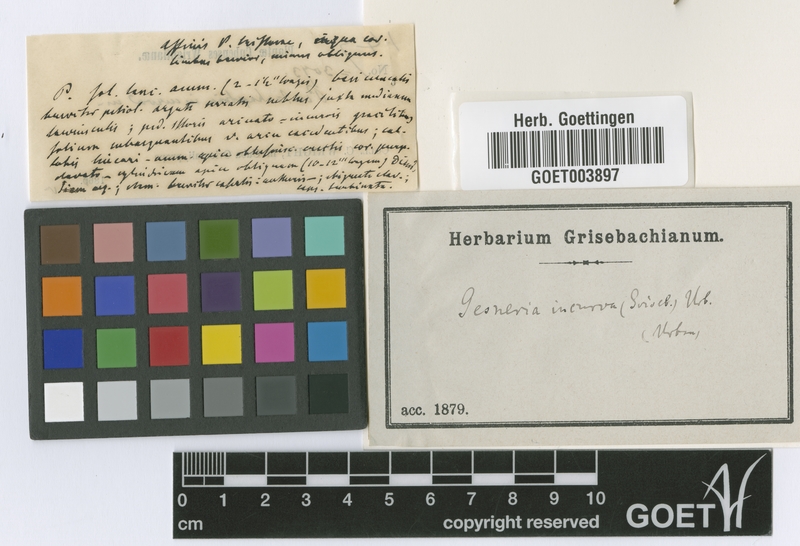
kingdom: Plantae
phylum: Tracheophyta
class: Magnoliopsida
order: Lamiales
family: Gesneriaceae
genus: Gesneria
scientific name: Gesneria binghamii
